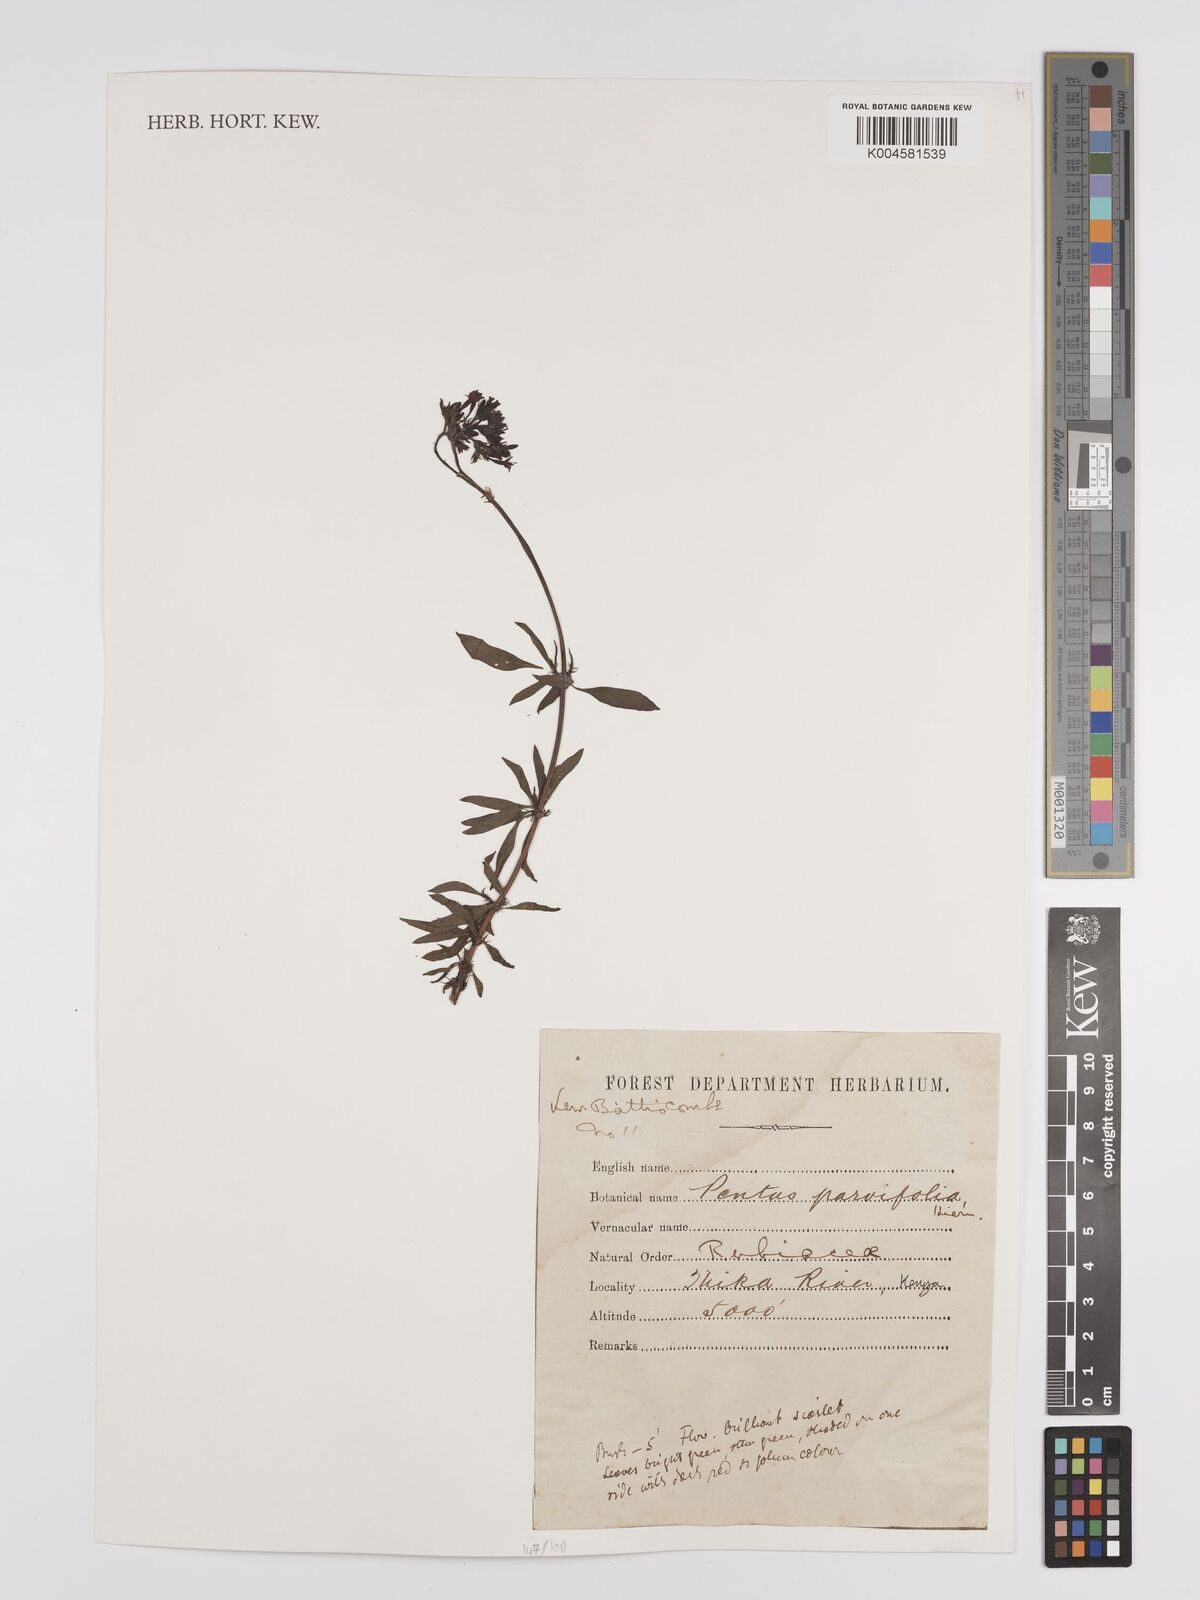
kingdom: Plantae
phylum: Tracheophyta
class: Magnoliopsida
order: Gentianales
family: Rubiaceae
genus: Rhodopentas
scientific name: Rhodopentas parvifolia
